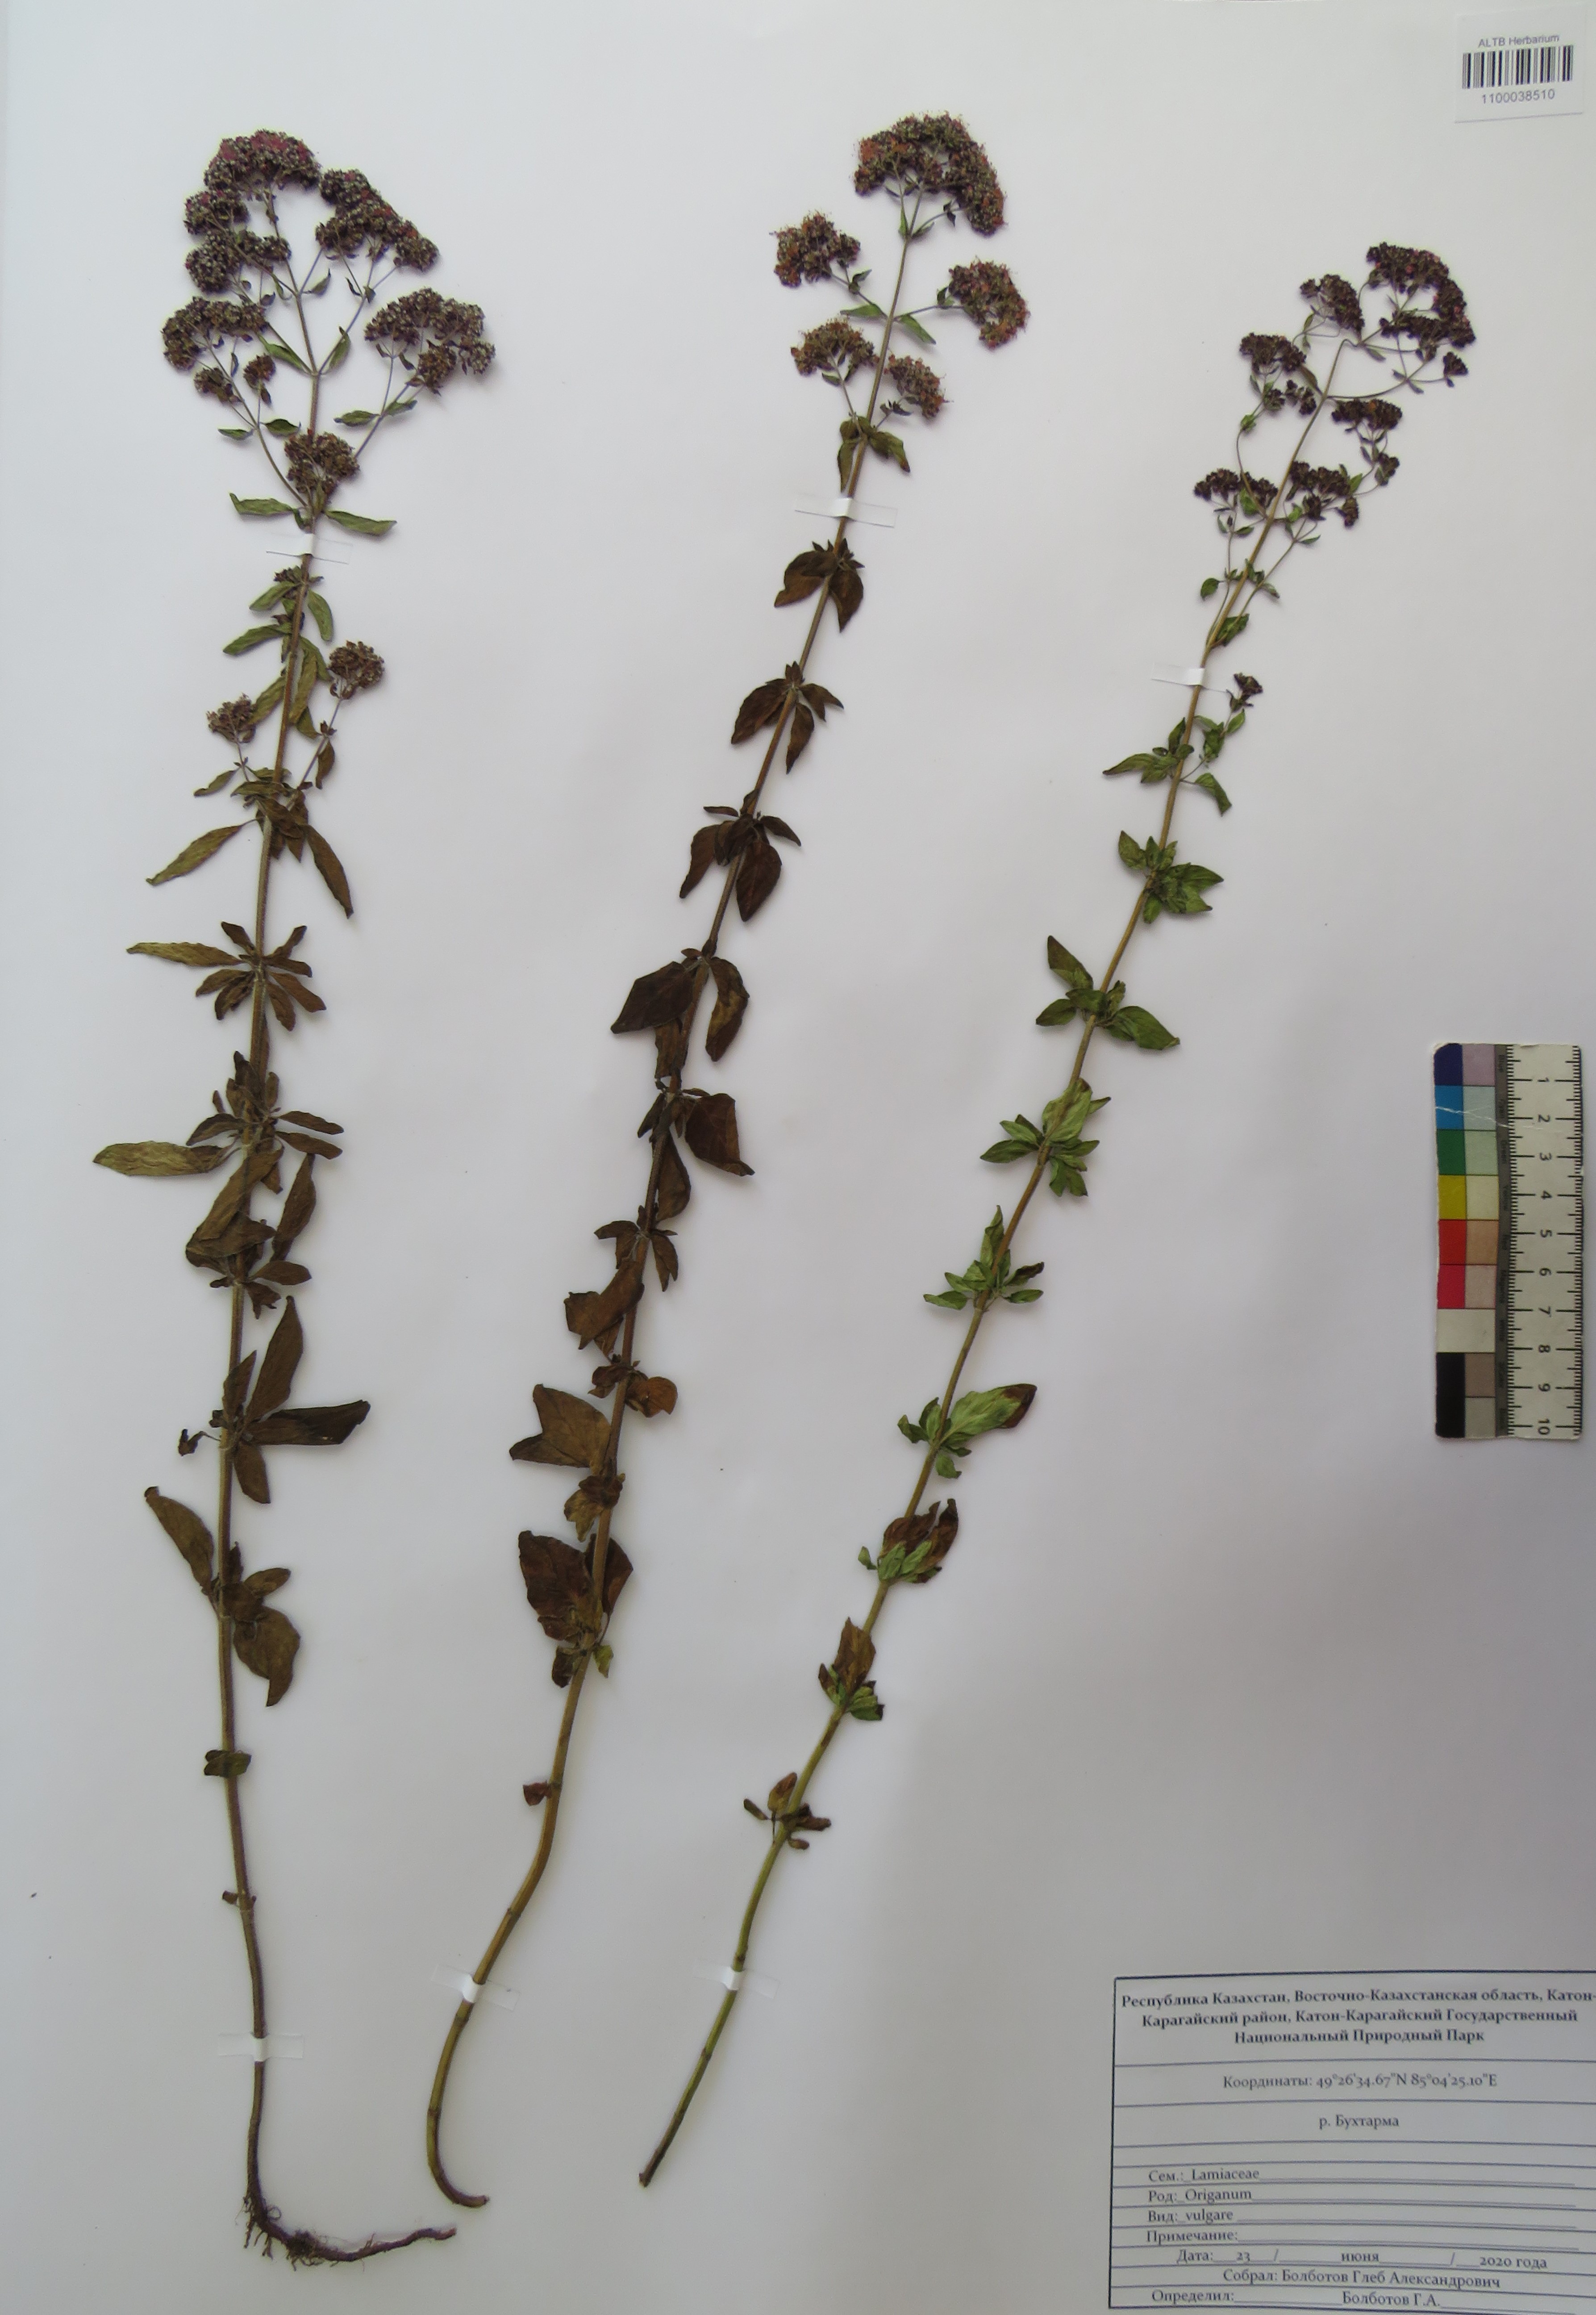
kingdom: Plantae
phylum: Tracheophyta
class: Magnoliopsida
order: Lamiales
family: Lamiaceae
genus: Origanum
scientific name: Origanum vulgare
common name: Wild marjoram
